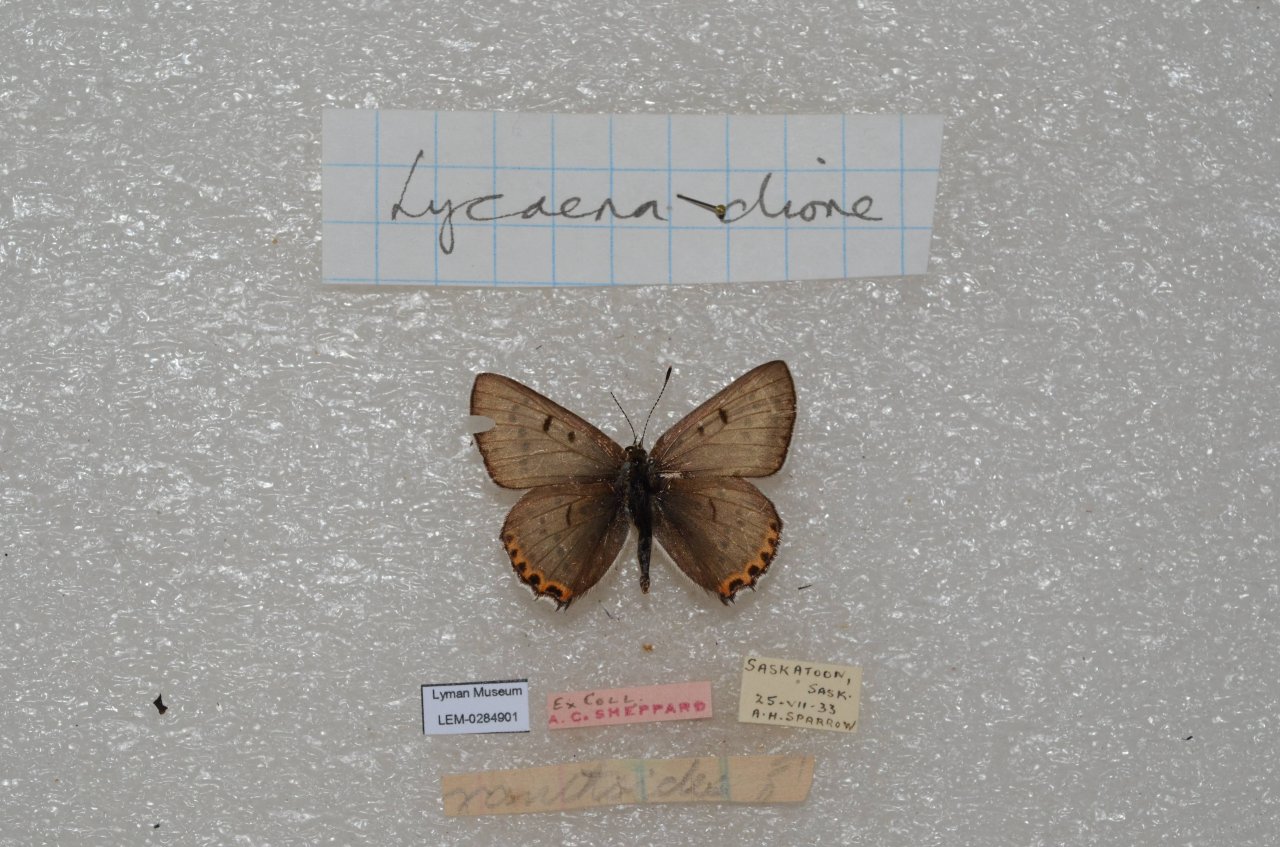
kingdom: Animalia
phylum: Arthropoda
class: Insecta
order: Lepidoptera
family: Lycaenidae
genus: Nacaduba
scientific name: Nacaduba dyopa
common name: Gray Copper
